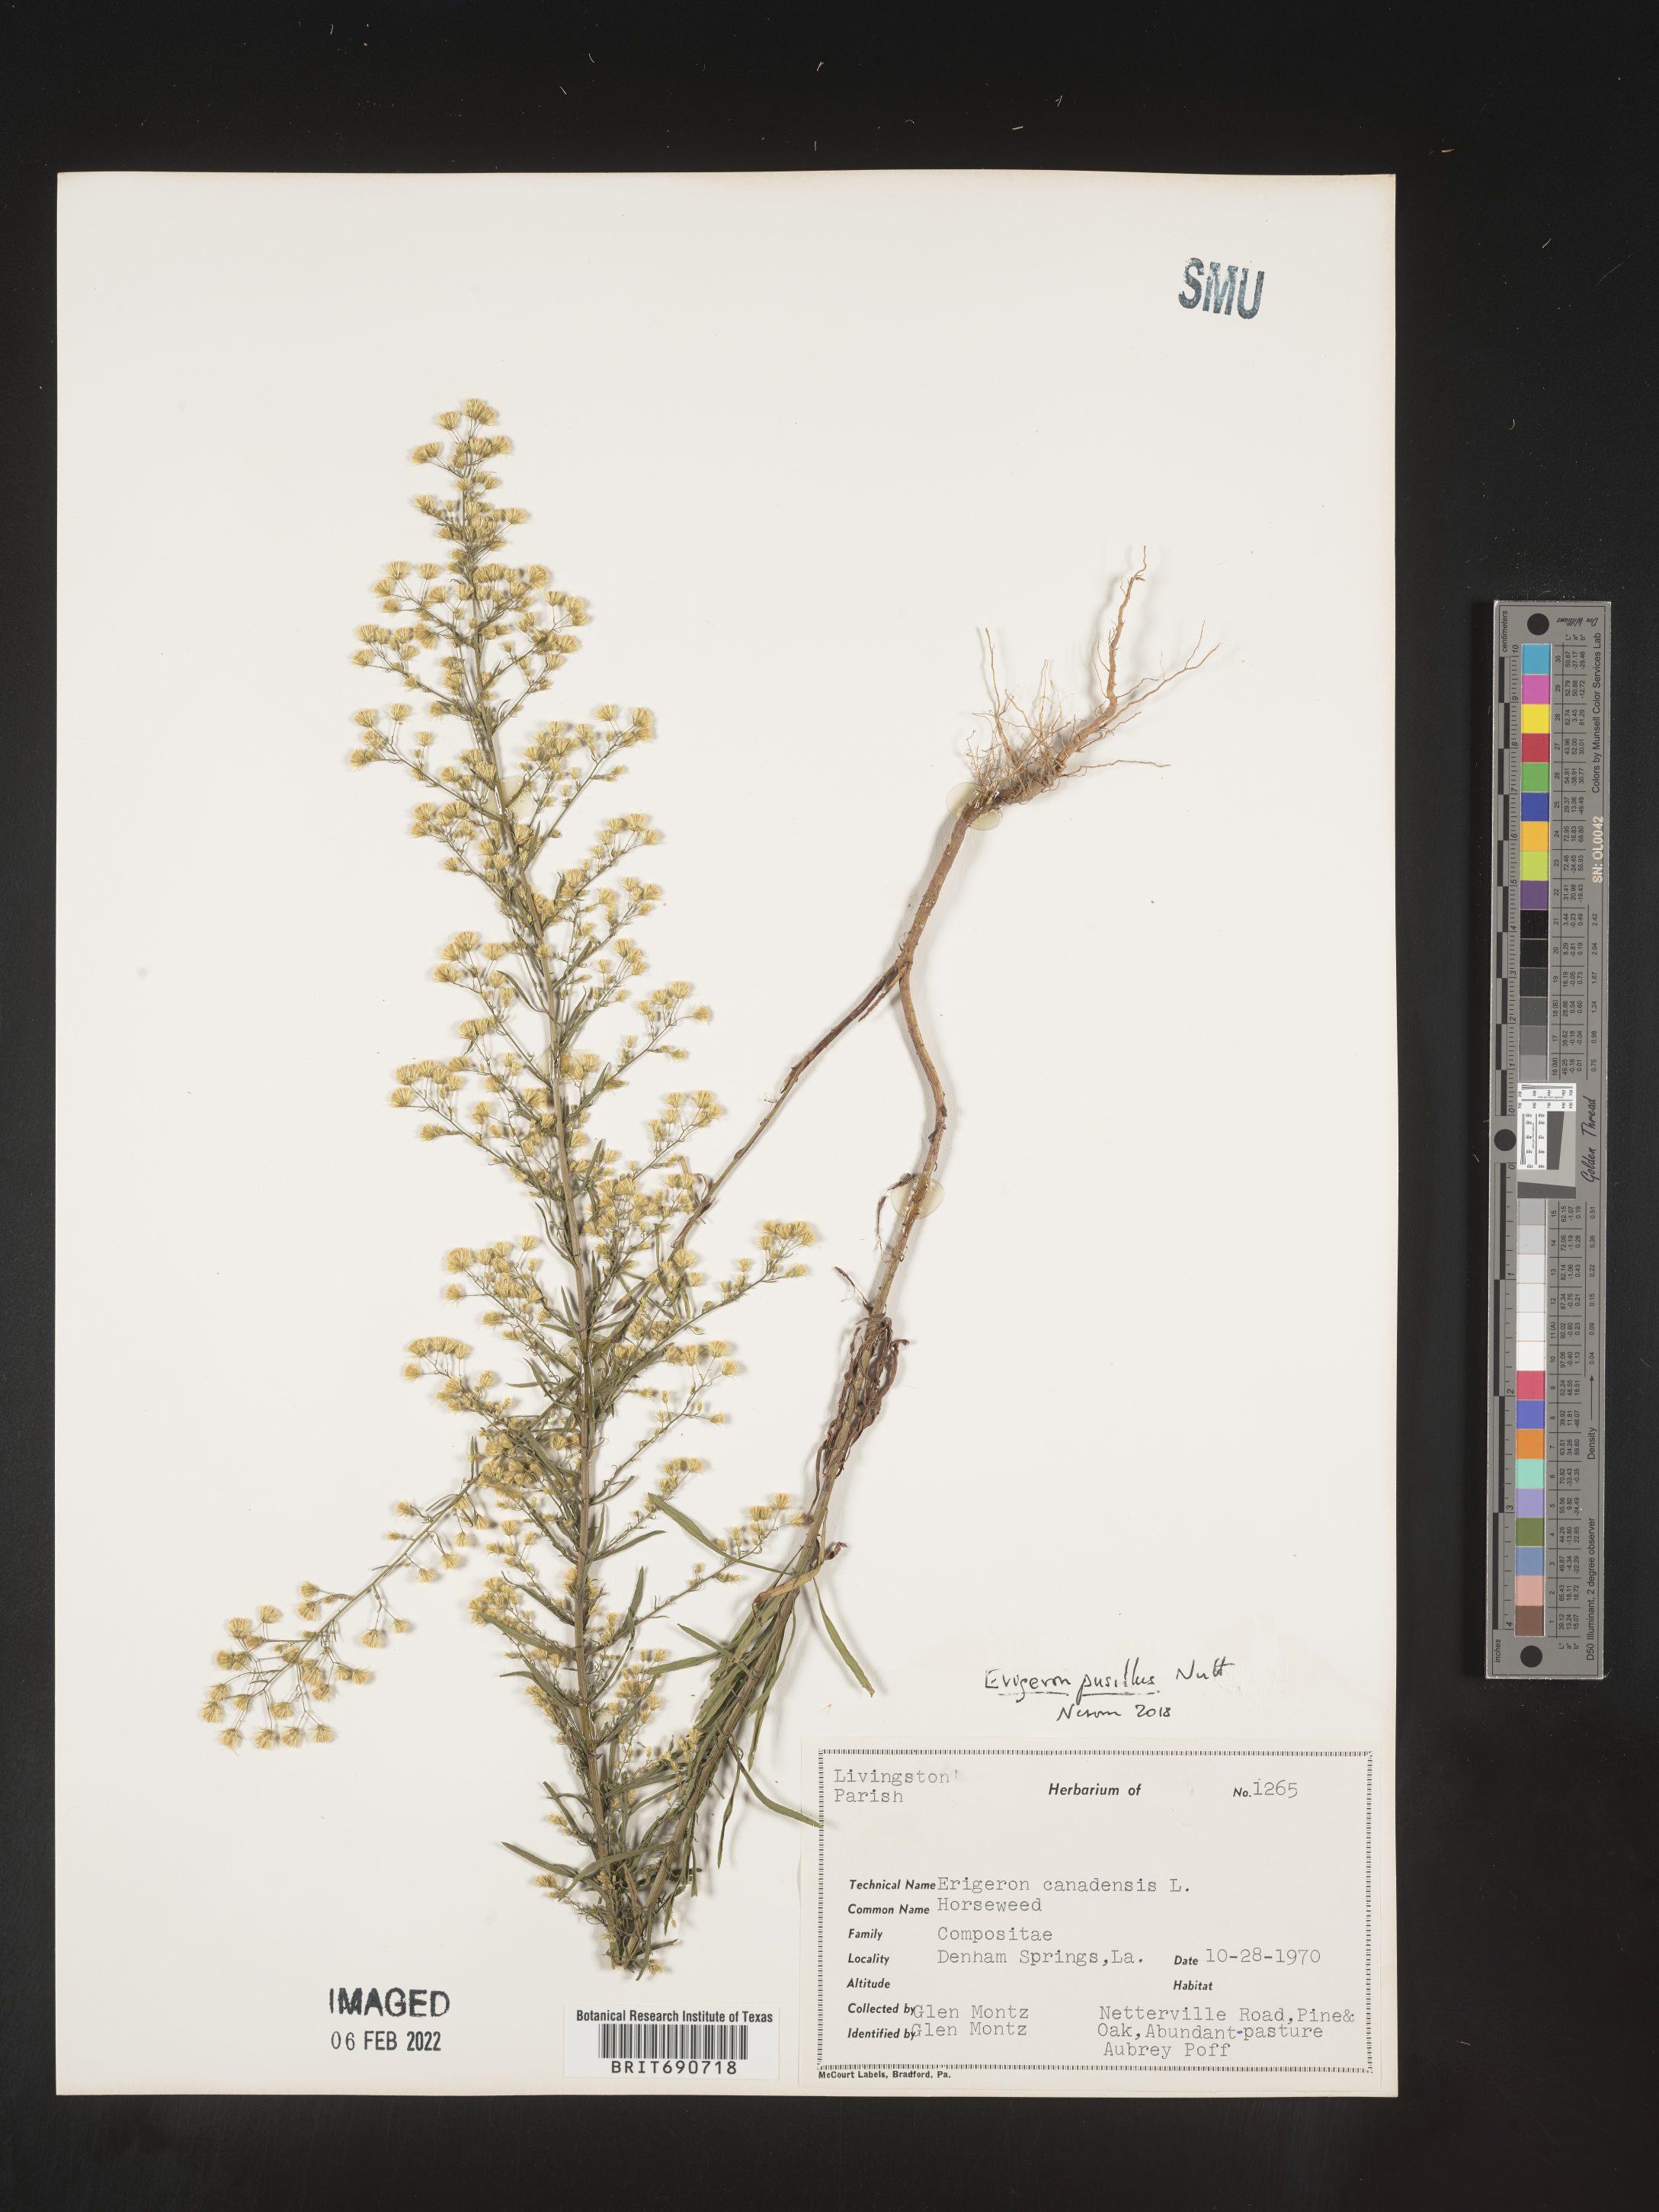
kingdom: Plantae
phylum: Tracheophyta
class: Magnoliopsida
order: Asterales
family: Asteraceae
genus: Erigeron
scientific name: Erigeron canadensis
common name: Canadian fleabane
